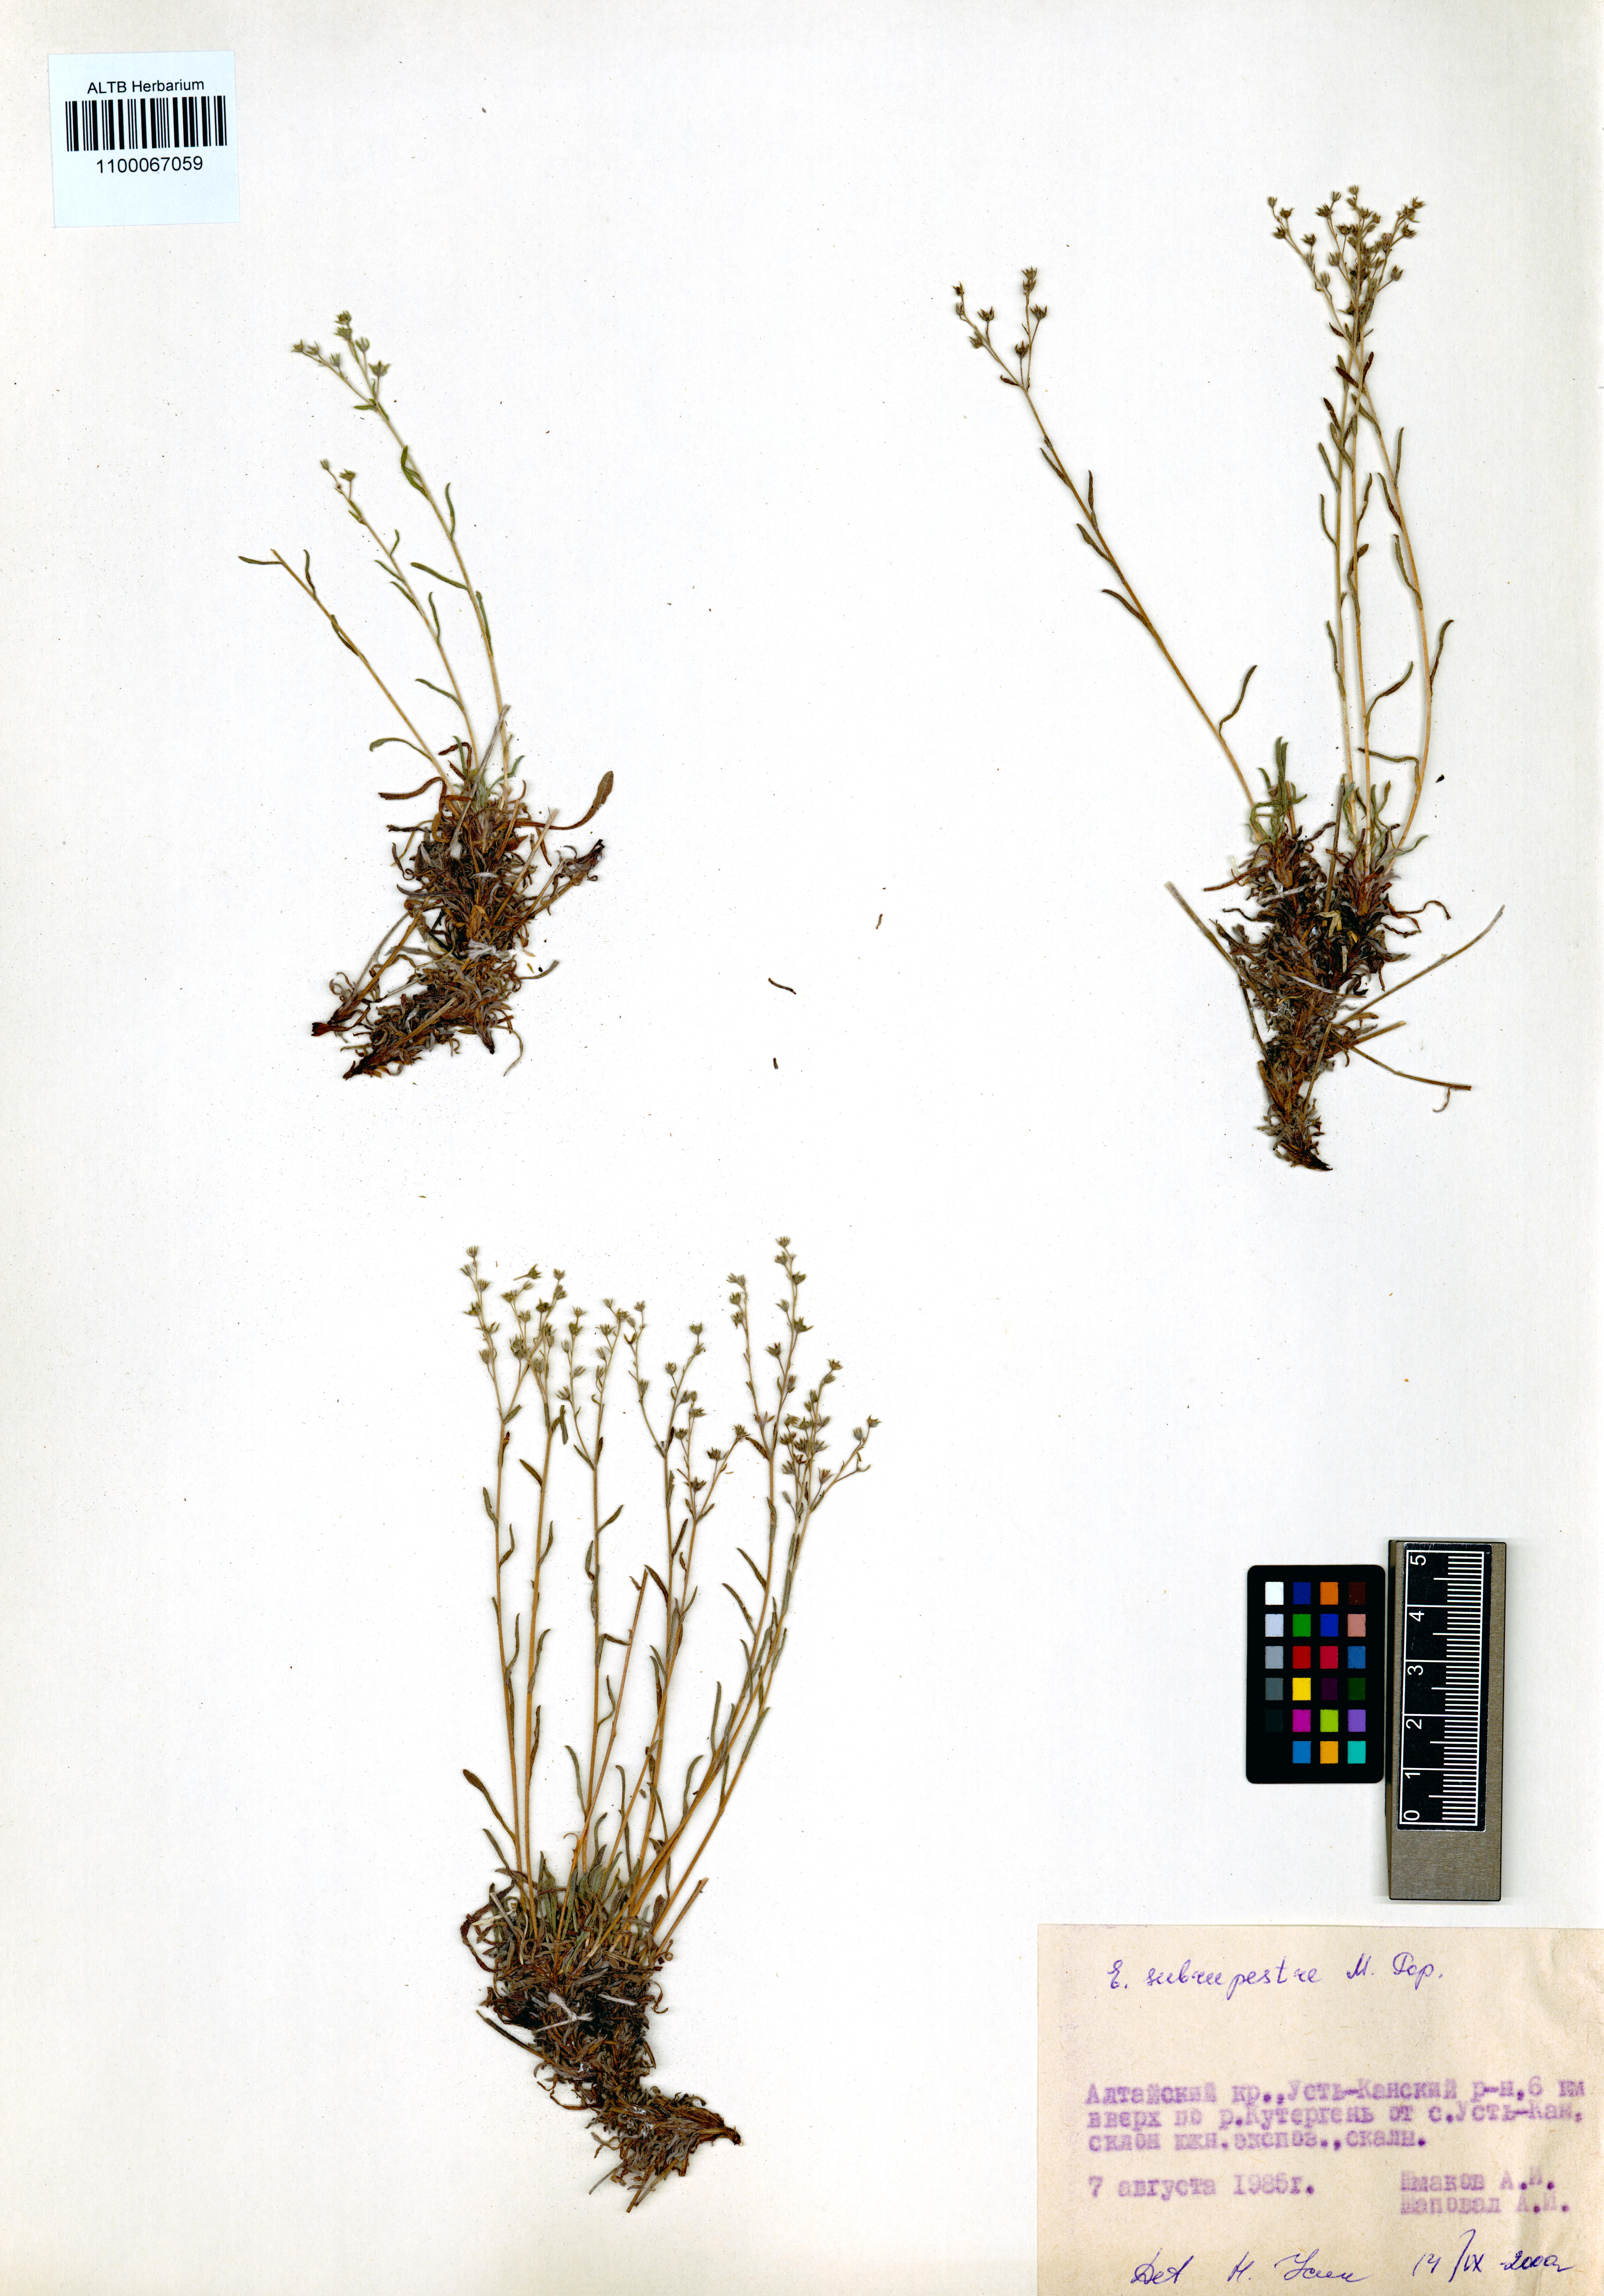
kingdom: Plantae
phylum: Tracheophyta
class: Magnoliopsida
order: Boraginales
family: Boraginaceae
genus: Eritrichium
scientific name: Eritrichium pauciflorum
